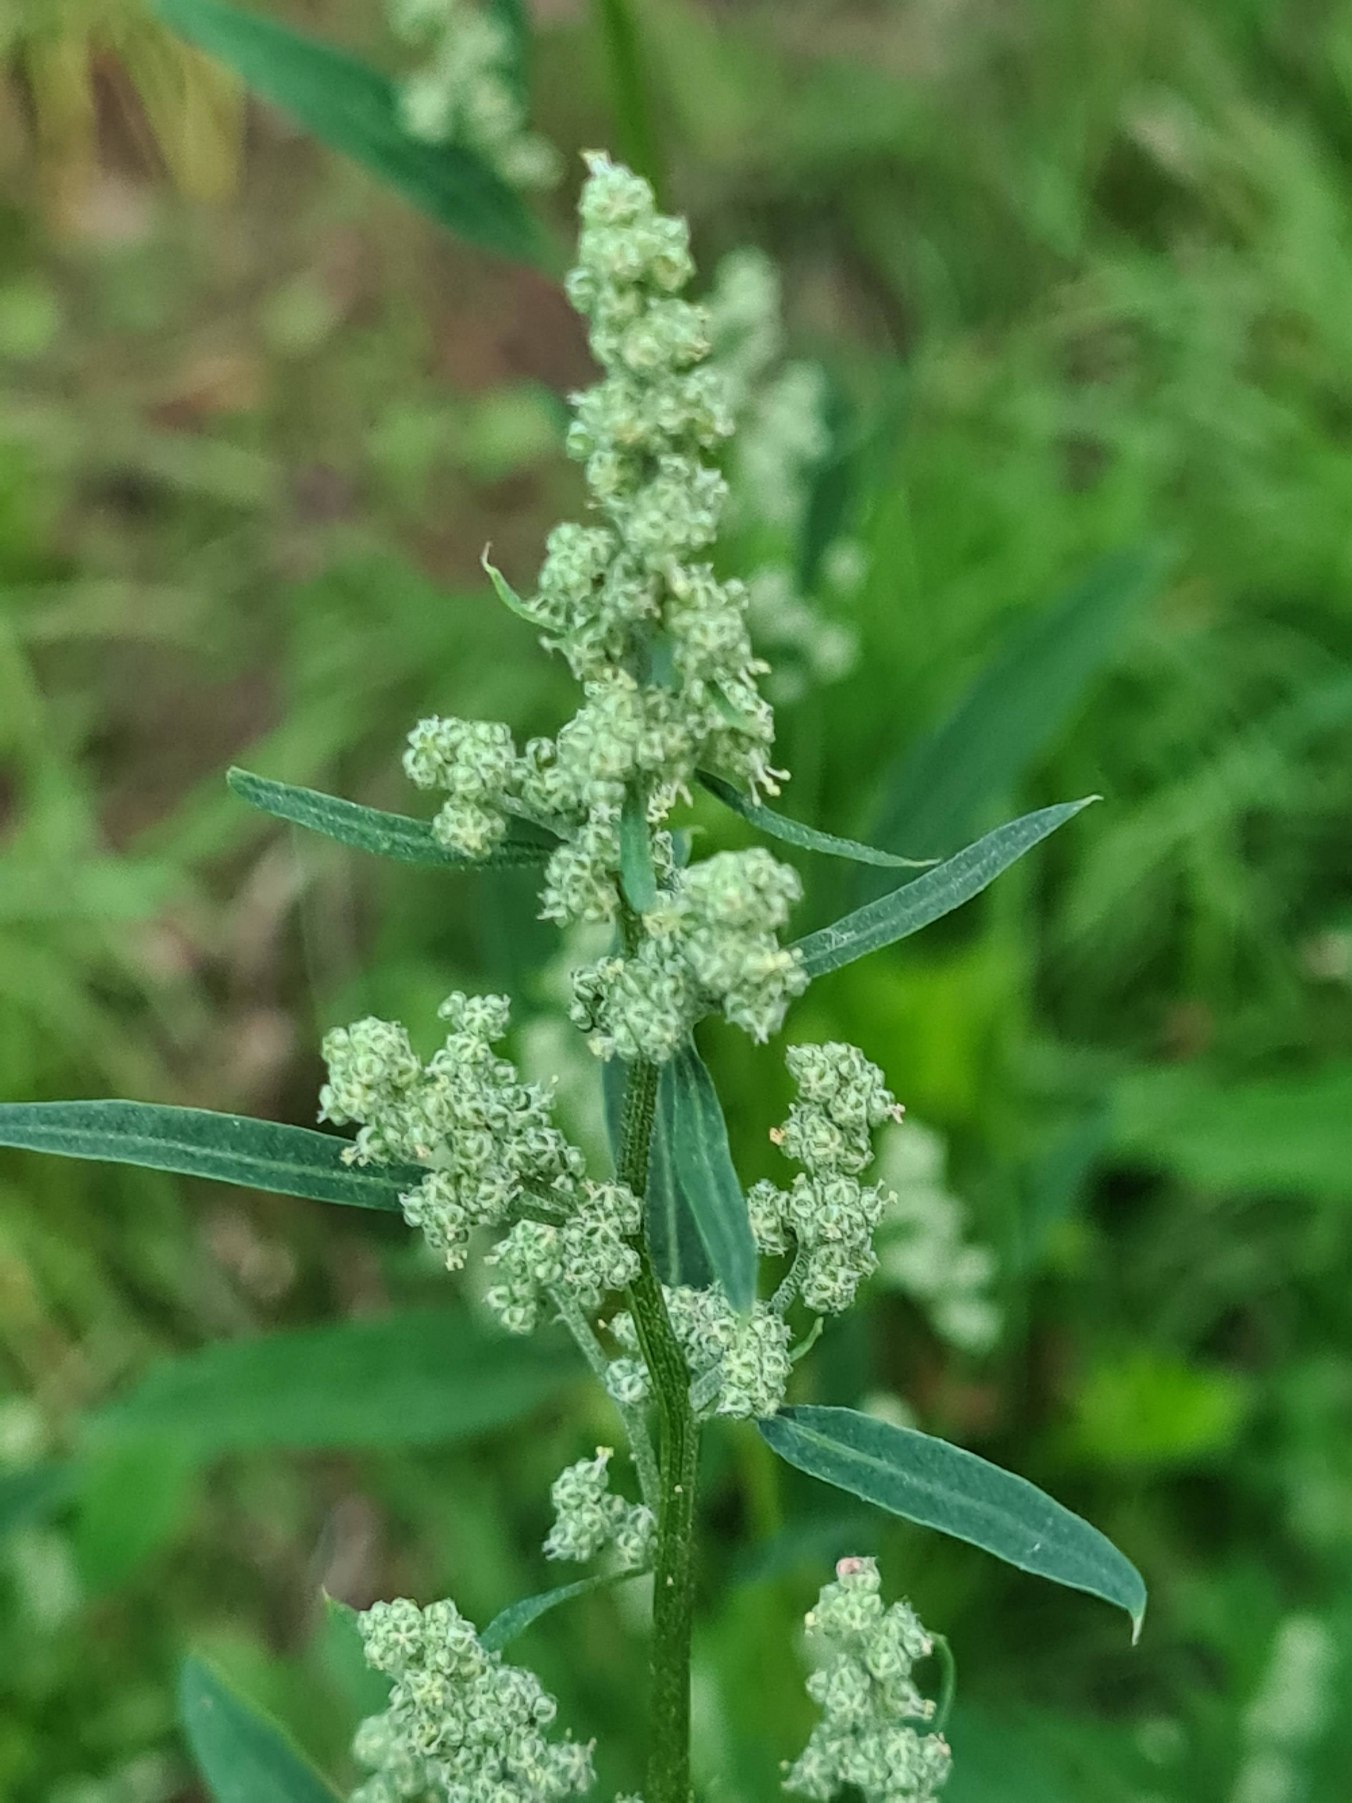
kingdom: Plantae
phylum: Tracheophyta
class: Magnoliopsida
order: Caryophyllales
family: Amaranthaceae
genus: Chenopodium
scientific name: Chenopodium album
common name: Hvidmelet gåsefod
